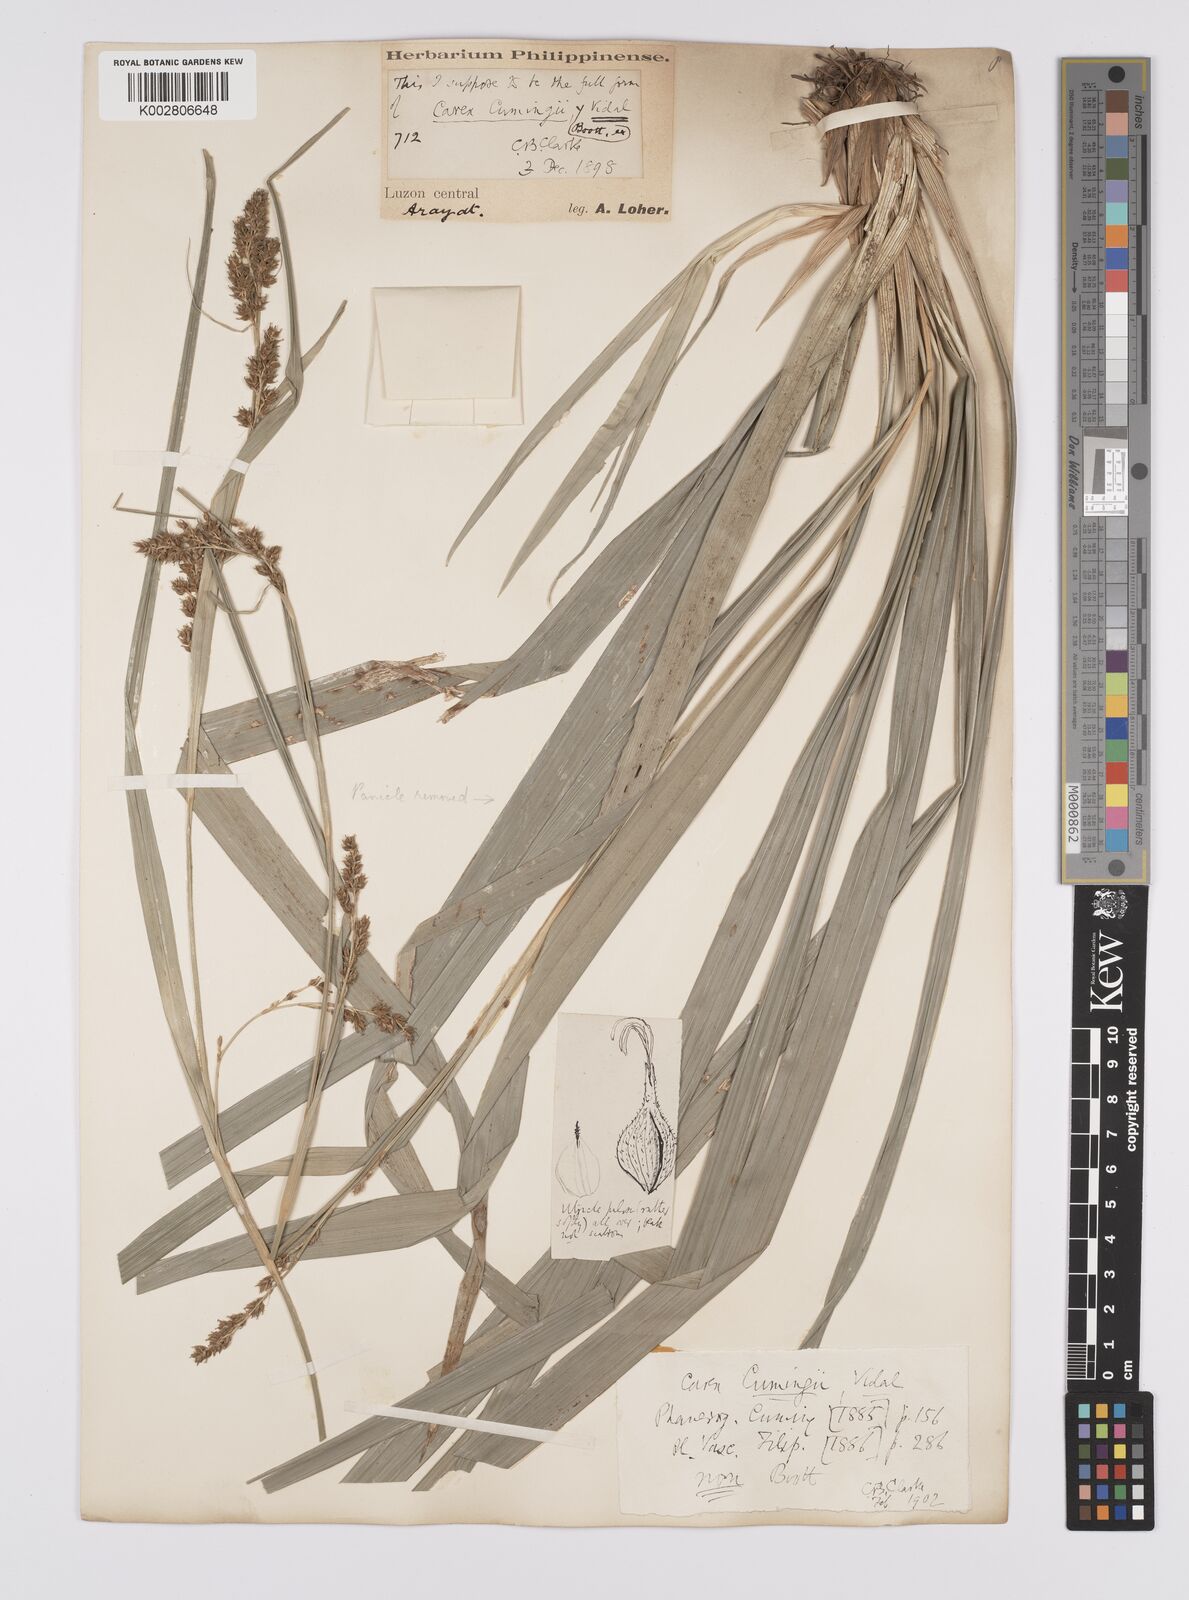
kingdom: Plantae
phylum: Tracheophyta
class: Liliopsida
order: Poales
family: Cyperaceae
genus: Carex
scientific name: Carex nodiflora
